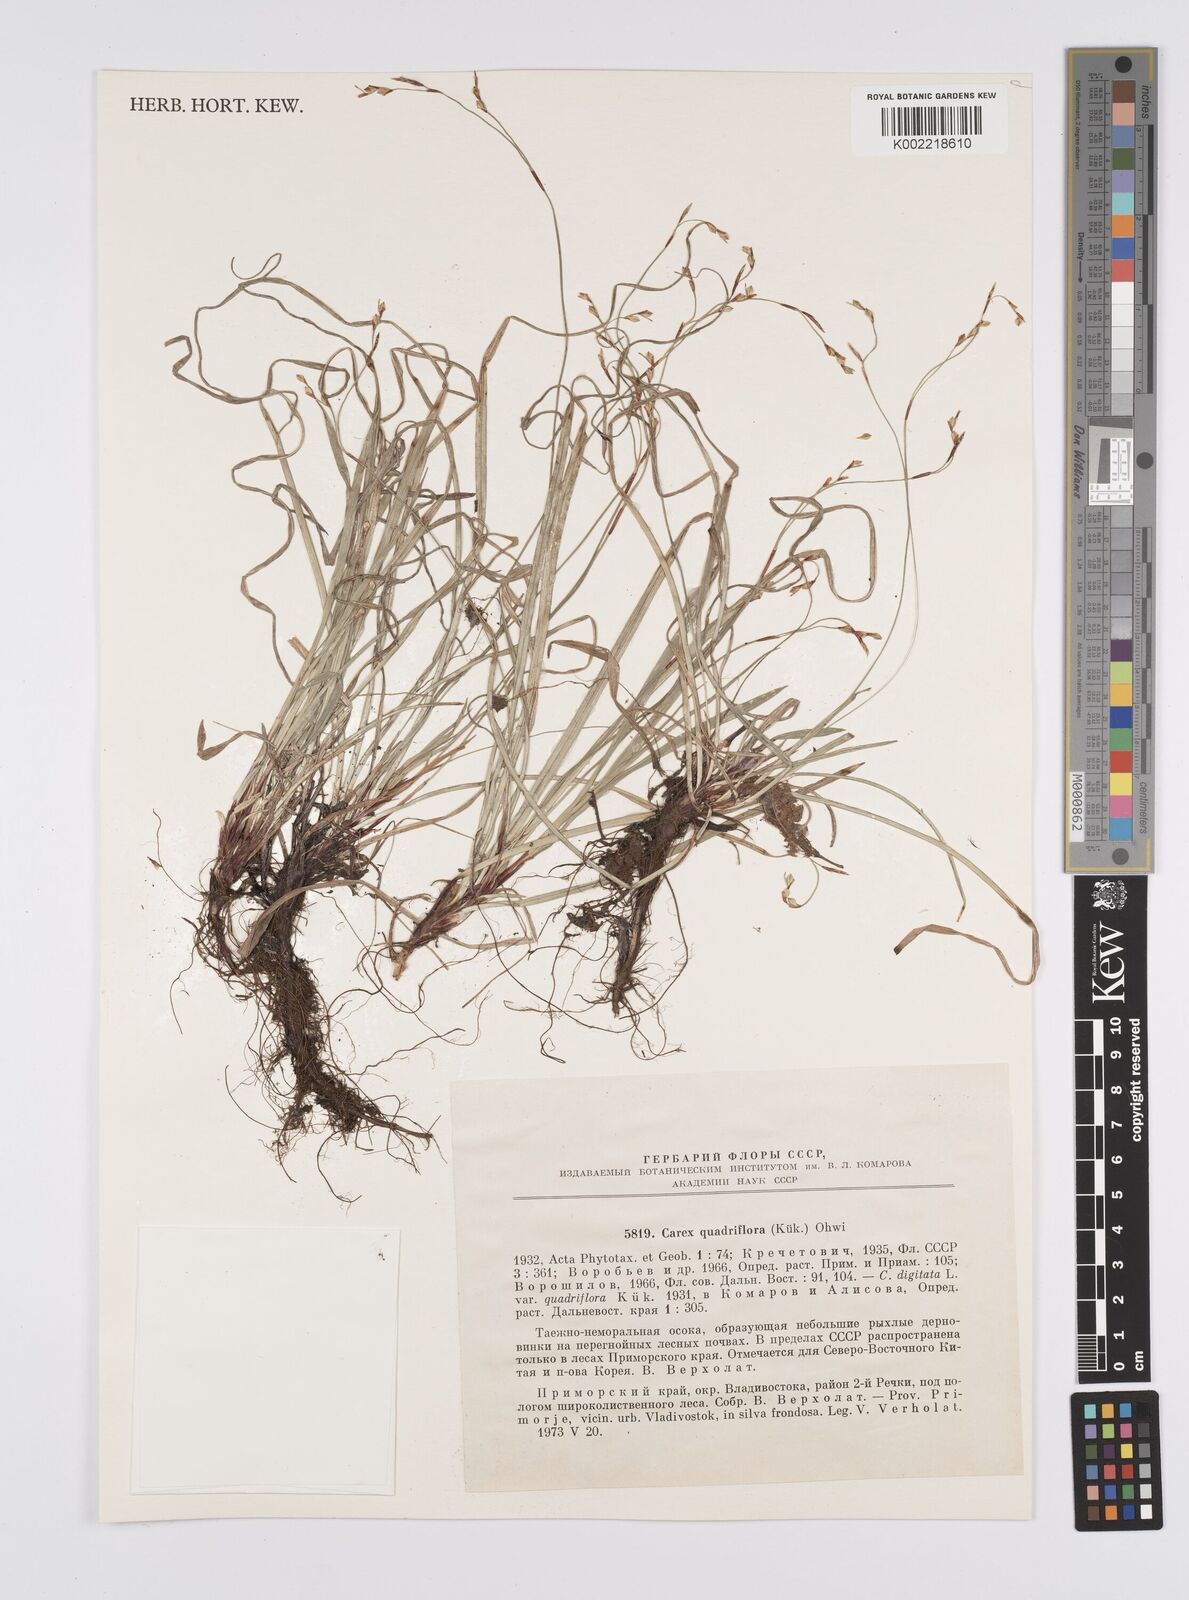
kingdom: Plantae
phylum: Tracheophyta
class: Liliopsida
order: Poales
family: Cyperaceae
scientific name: Cyperaceae
